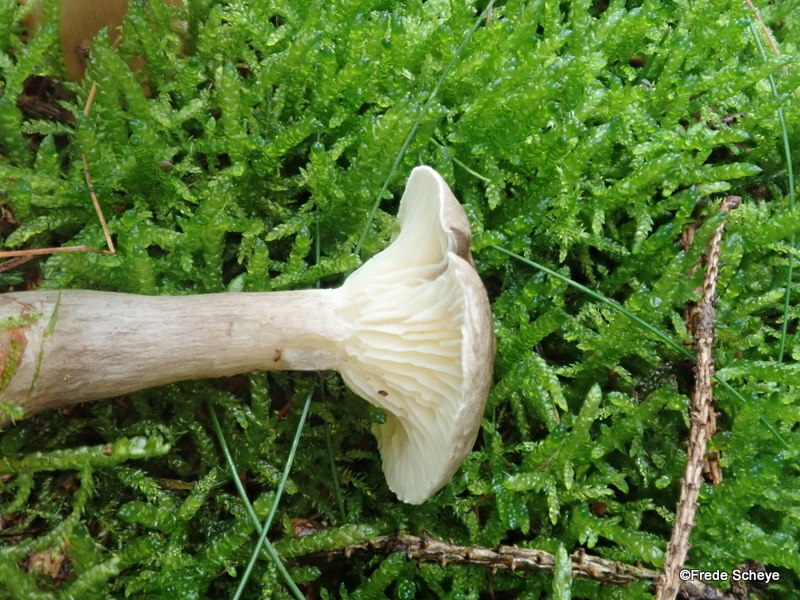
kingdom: Fungi
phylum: Basidiomycota
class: Agaricomycetes
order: Agaricales
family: Hygrophoraceae
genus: Ampulloclitocybe
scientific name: Ampulloclitocybe clavipes
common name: køllefod
